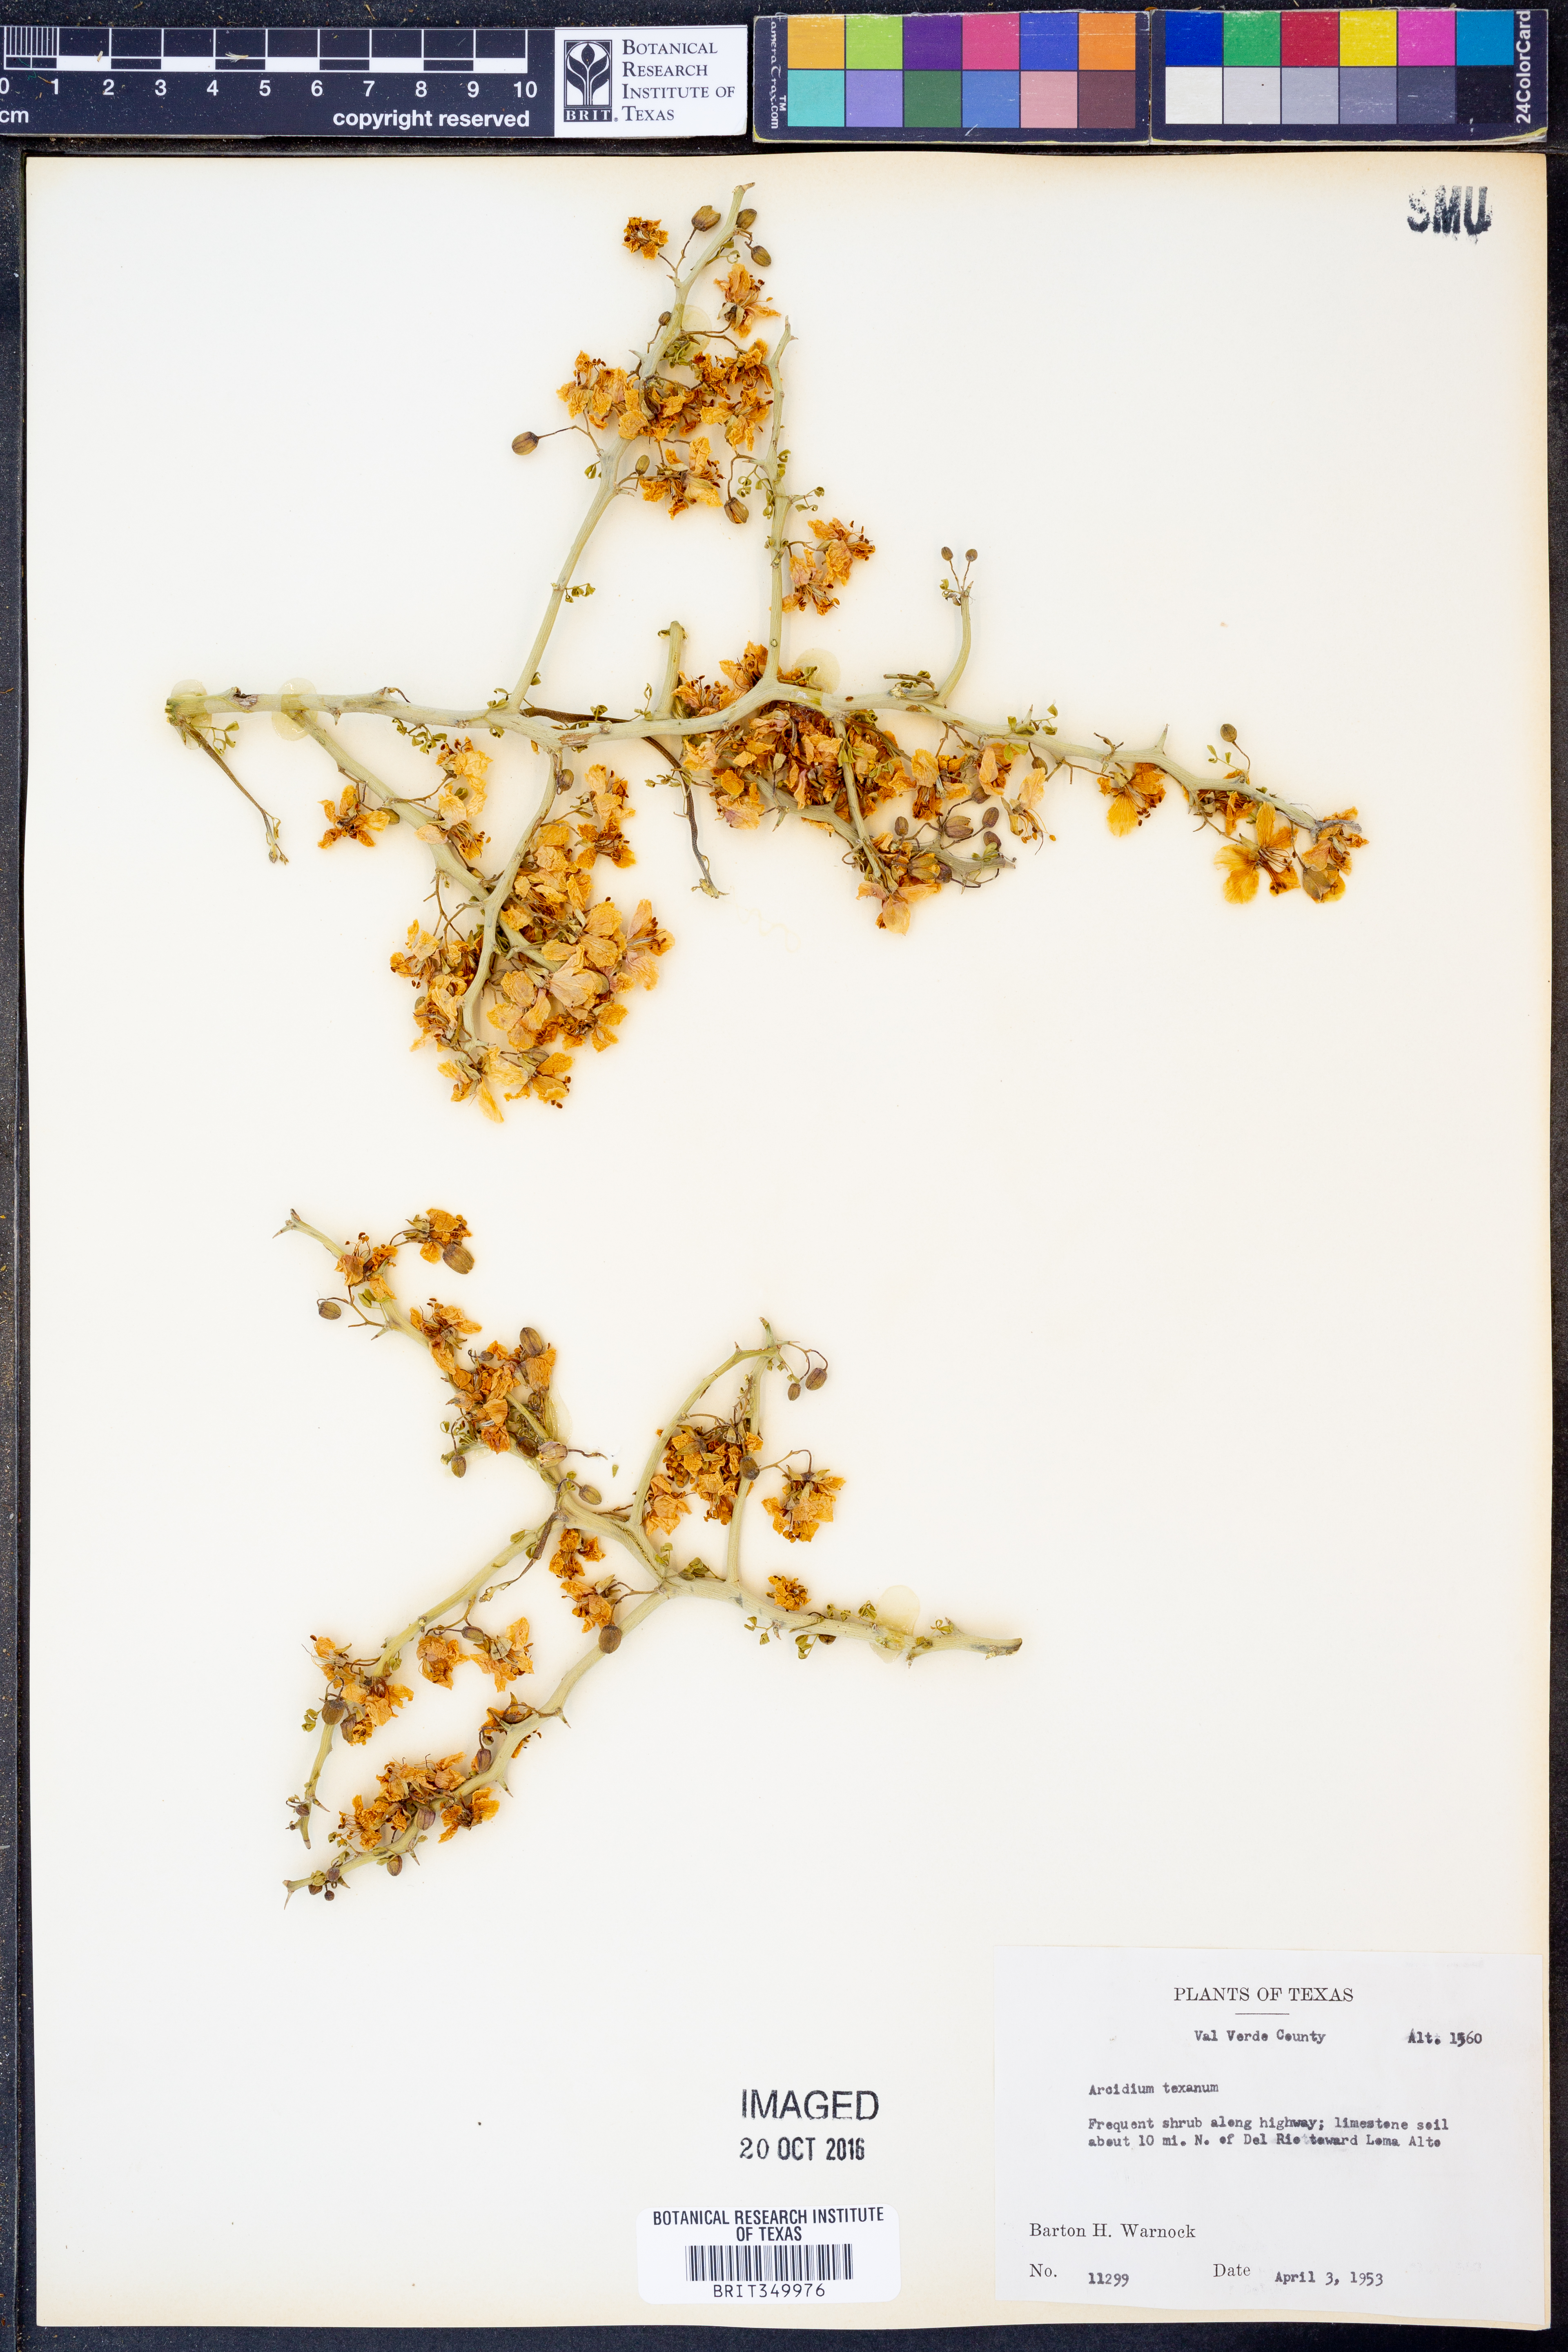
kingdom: Plantae
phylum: Tracheophyta
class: Magnoliopsida
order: Fabales
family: Fabaceae
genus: Parkinsonia
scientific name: Parkinsonia texana
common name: Texas paloverde
